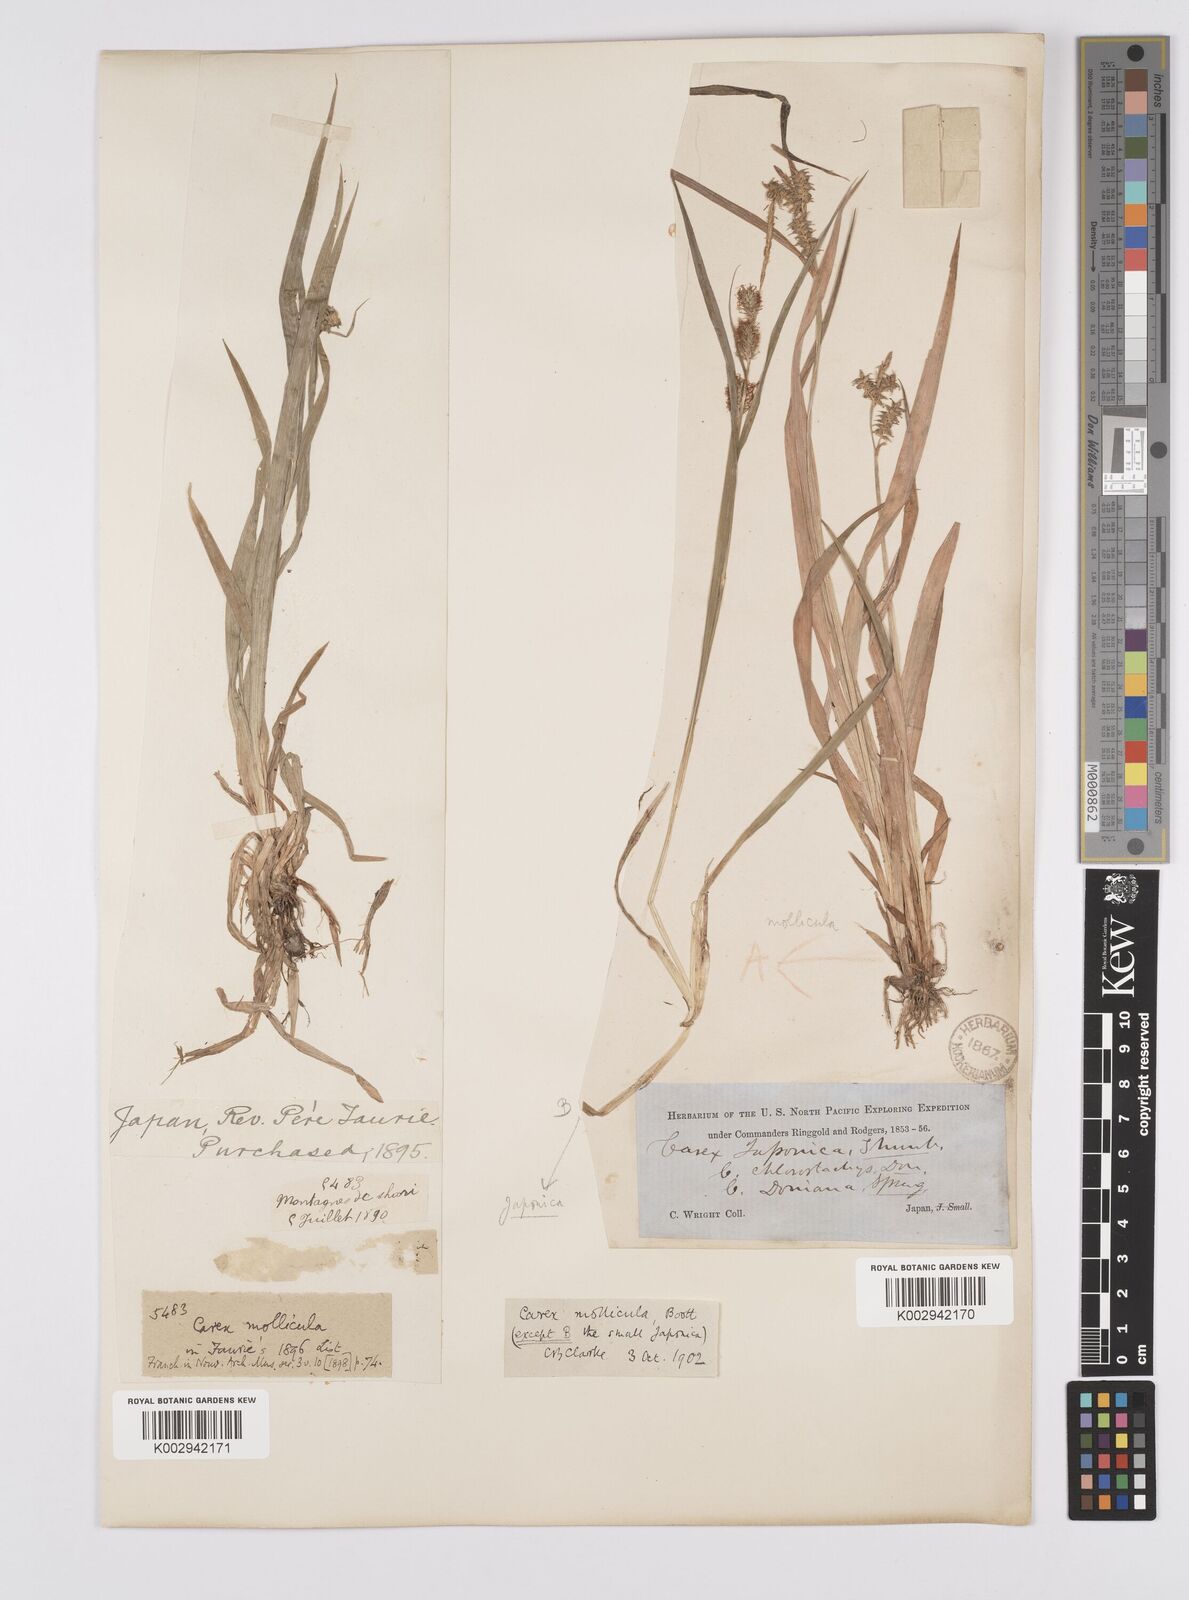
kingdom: Plantae
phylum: Tracheophyta
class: Liliopsida
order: Poales
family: Cyperaceae
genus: Carex
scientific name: Carex mollicula
